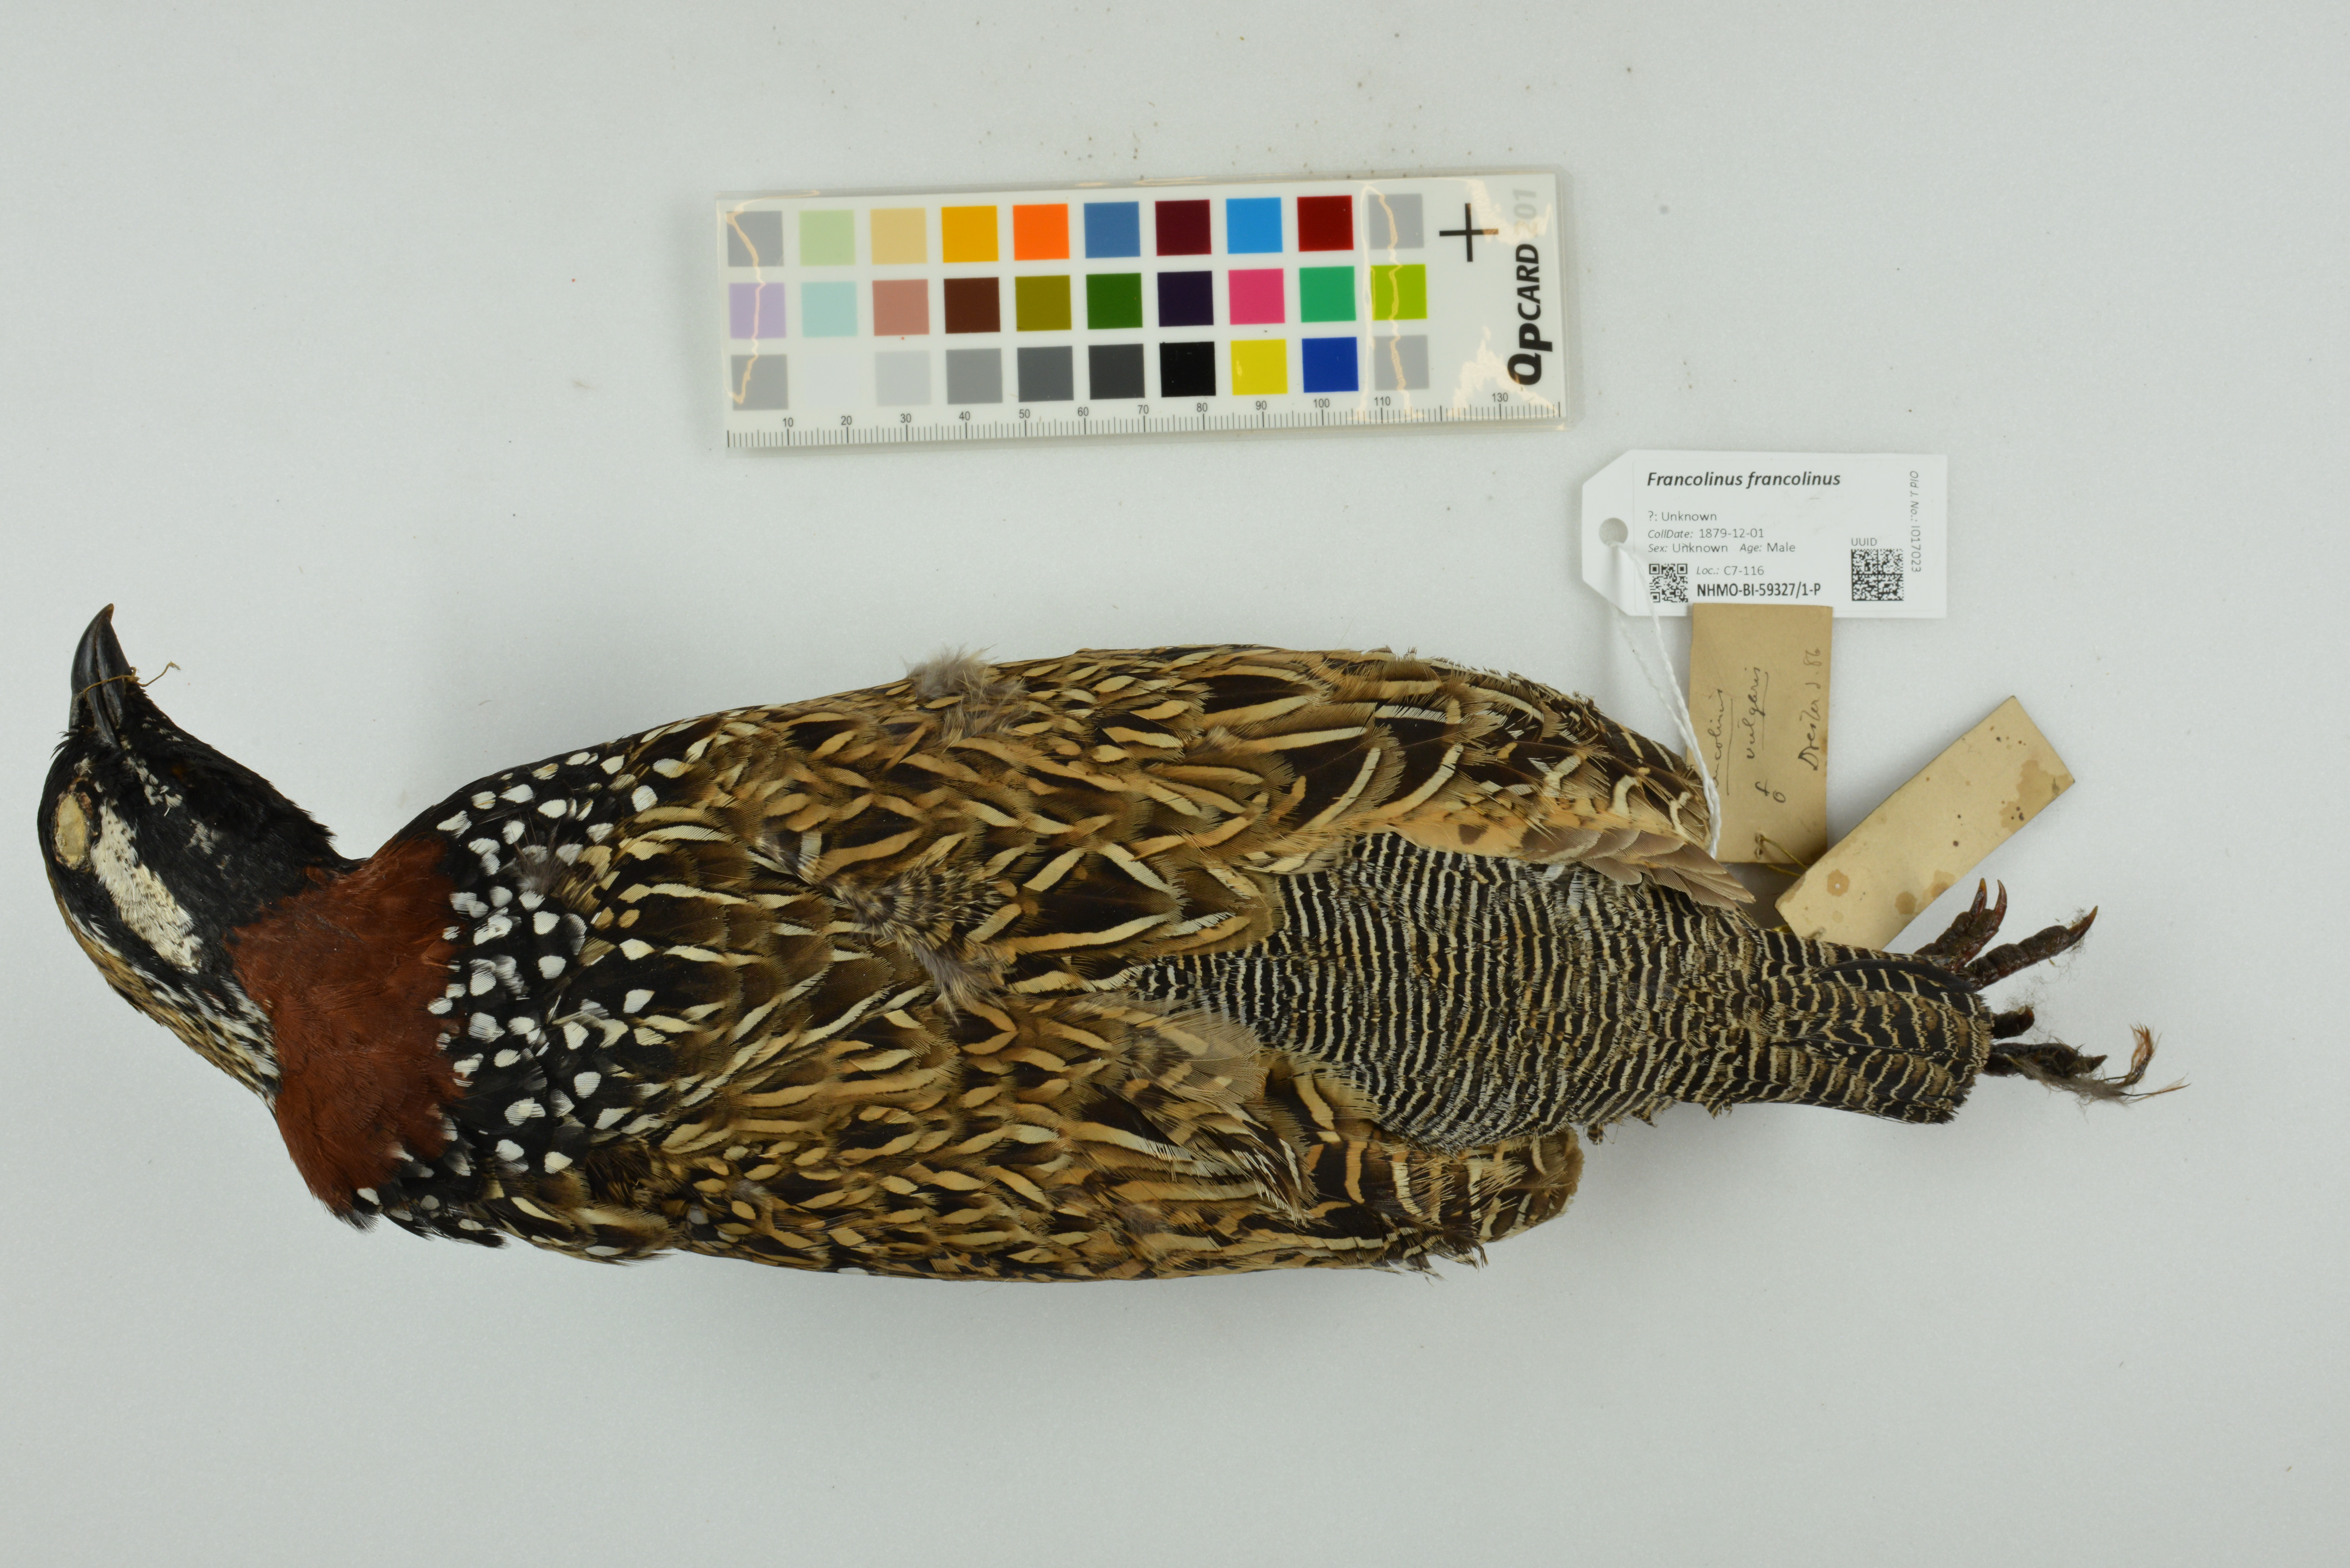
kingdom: Animalia
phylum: Chordata
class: Aves
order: Galliformes
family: Phasianidae
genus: Francolinus
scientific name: Francolinus francolinus
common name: Black francolin
